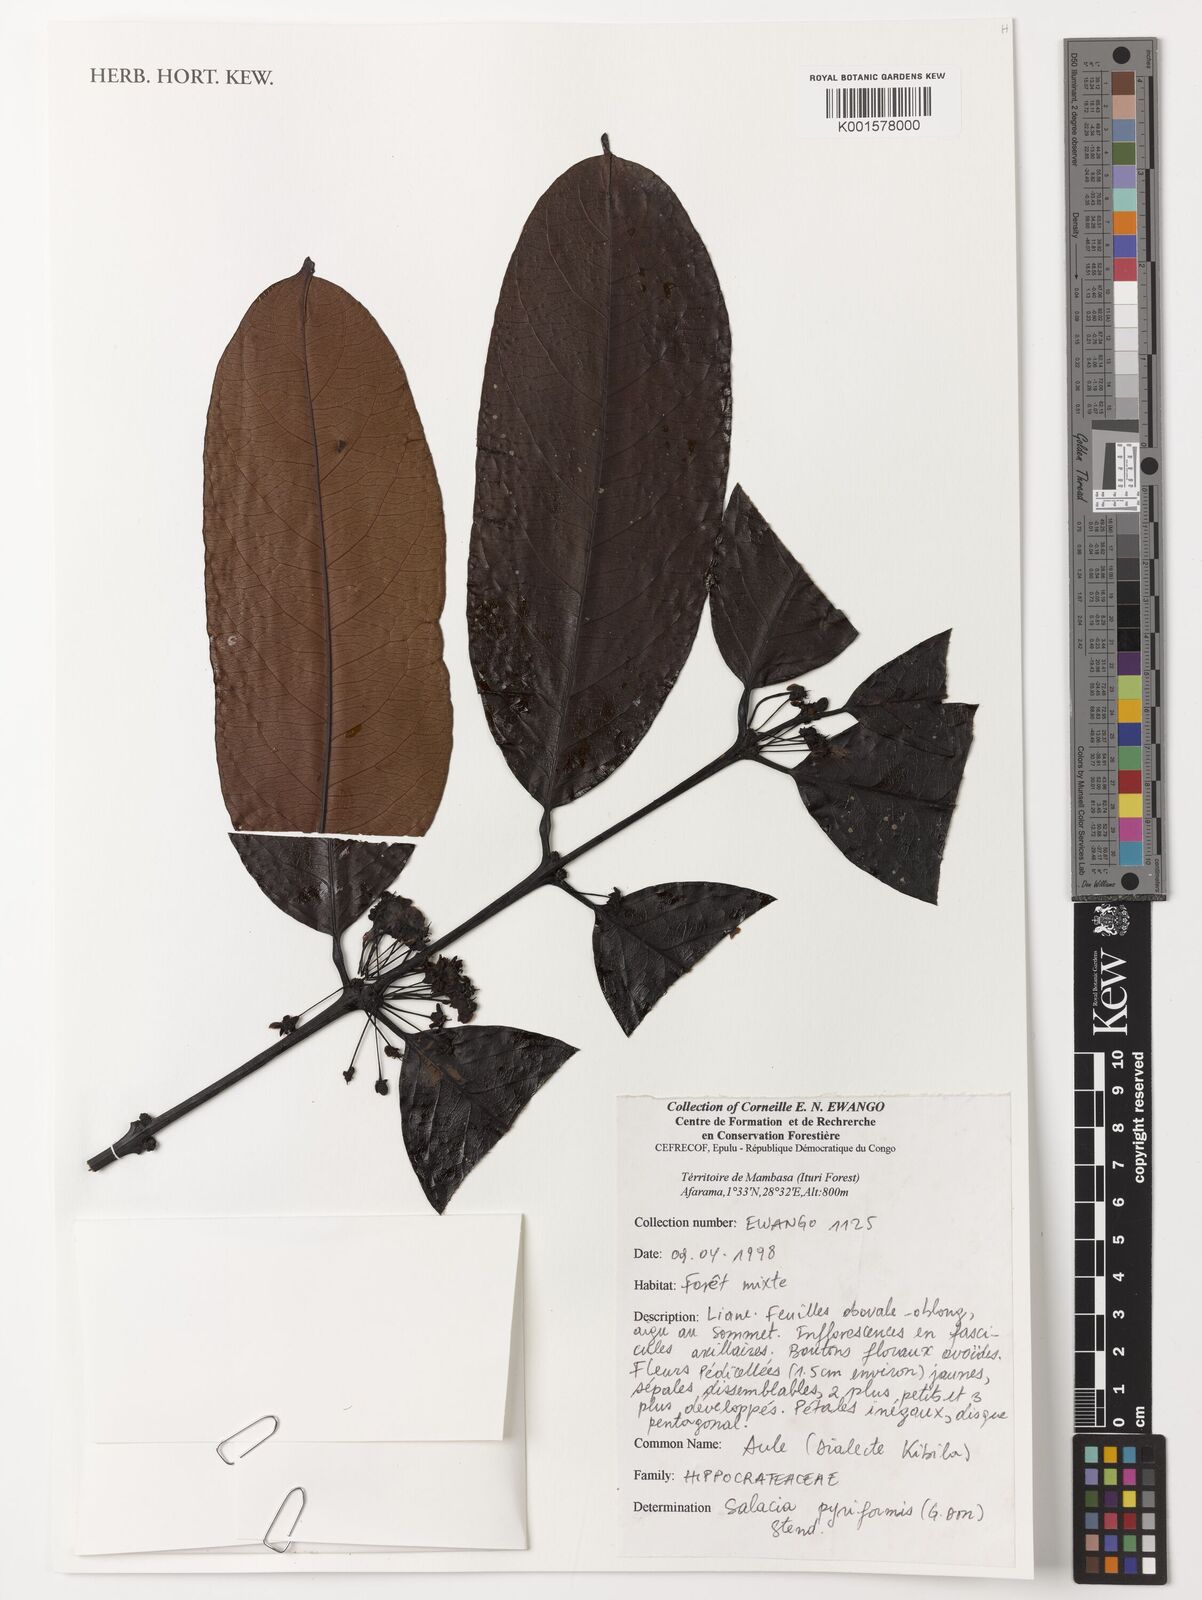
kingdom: Plantae
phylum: Tracheophyta
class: Magnoliopsida
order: Celastrales
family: Celastraceae
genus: Salacia
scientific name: Salacia pyriformis
